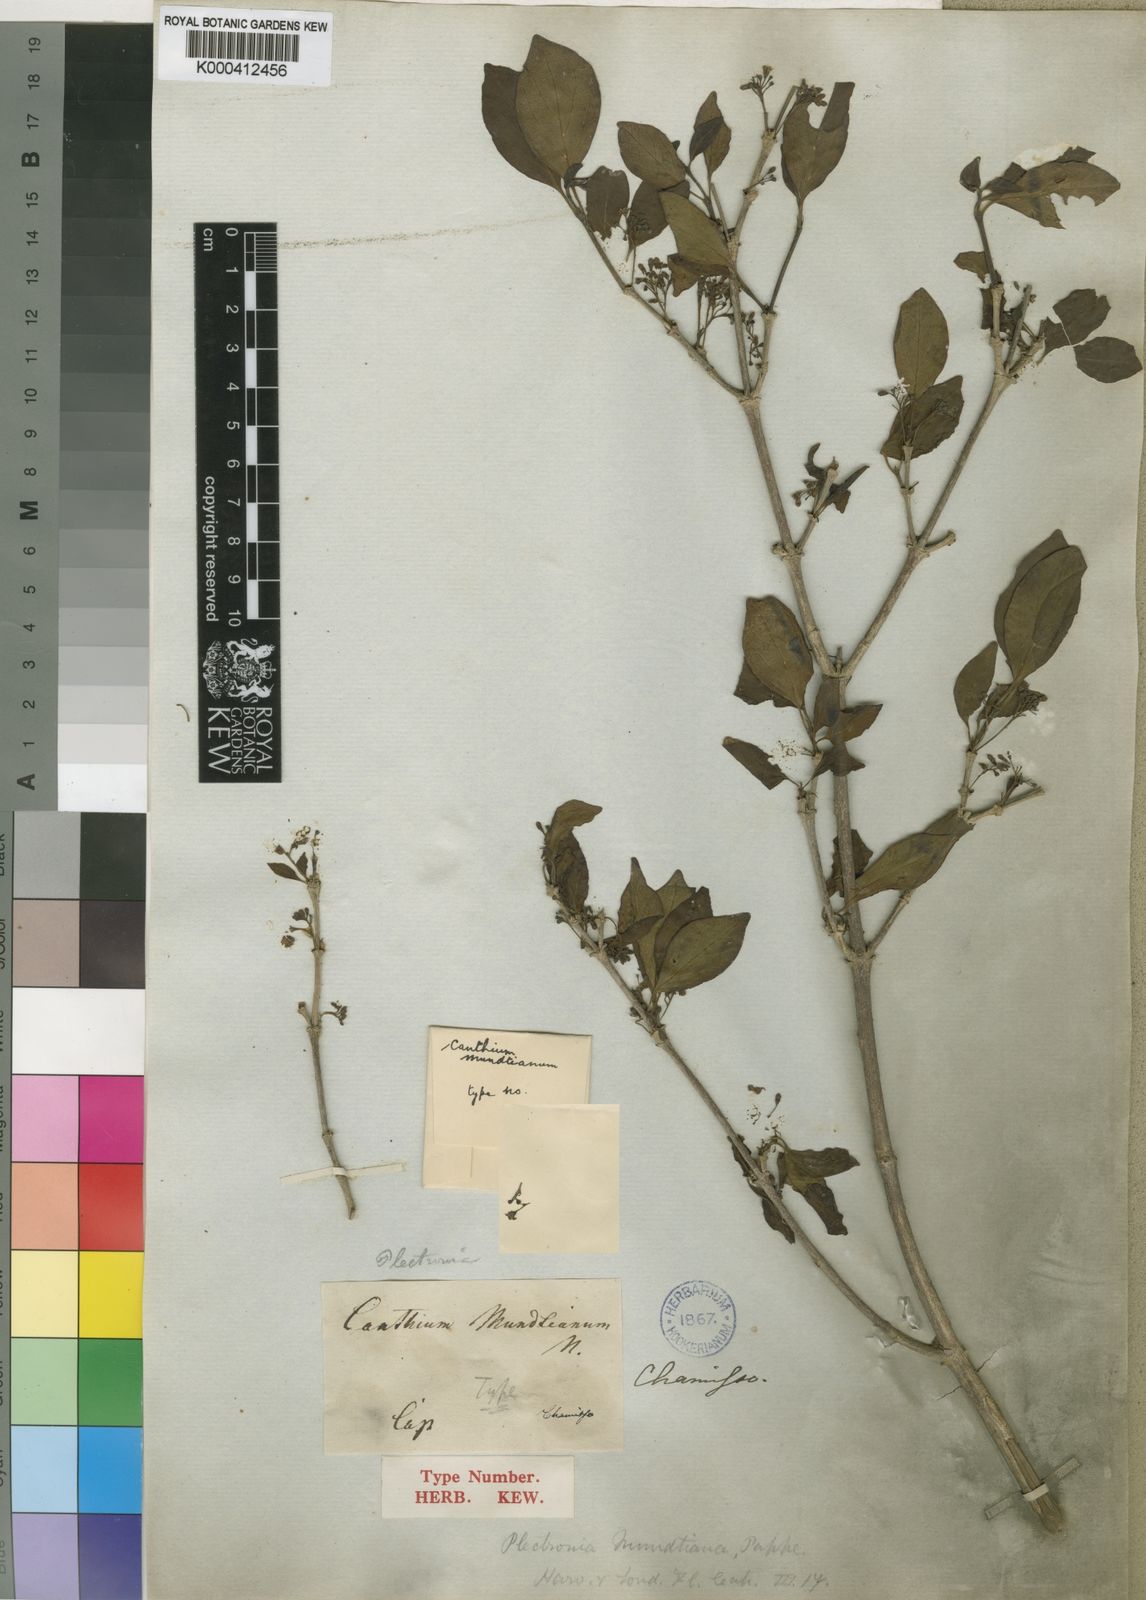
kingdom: Plantae
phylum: Tracheophyta
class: Magnoliopsida
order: Gentianales
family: Rubiaceae
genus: Afrocanthium
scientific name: Afrocanthium mundianum
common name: Rock-alder
